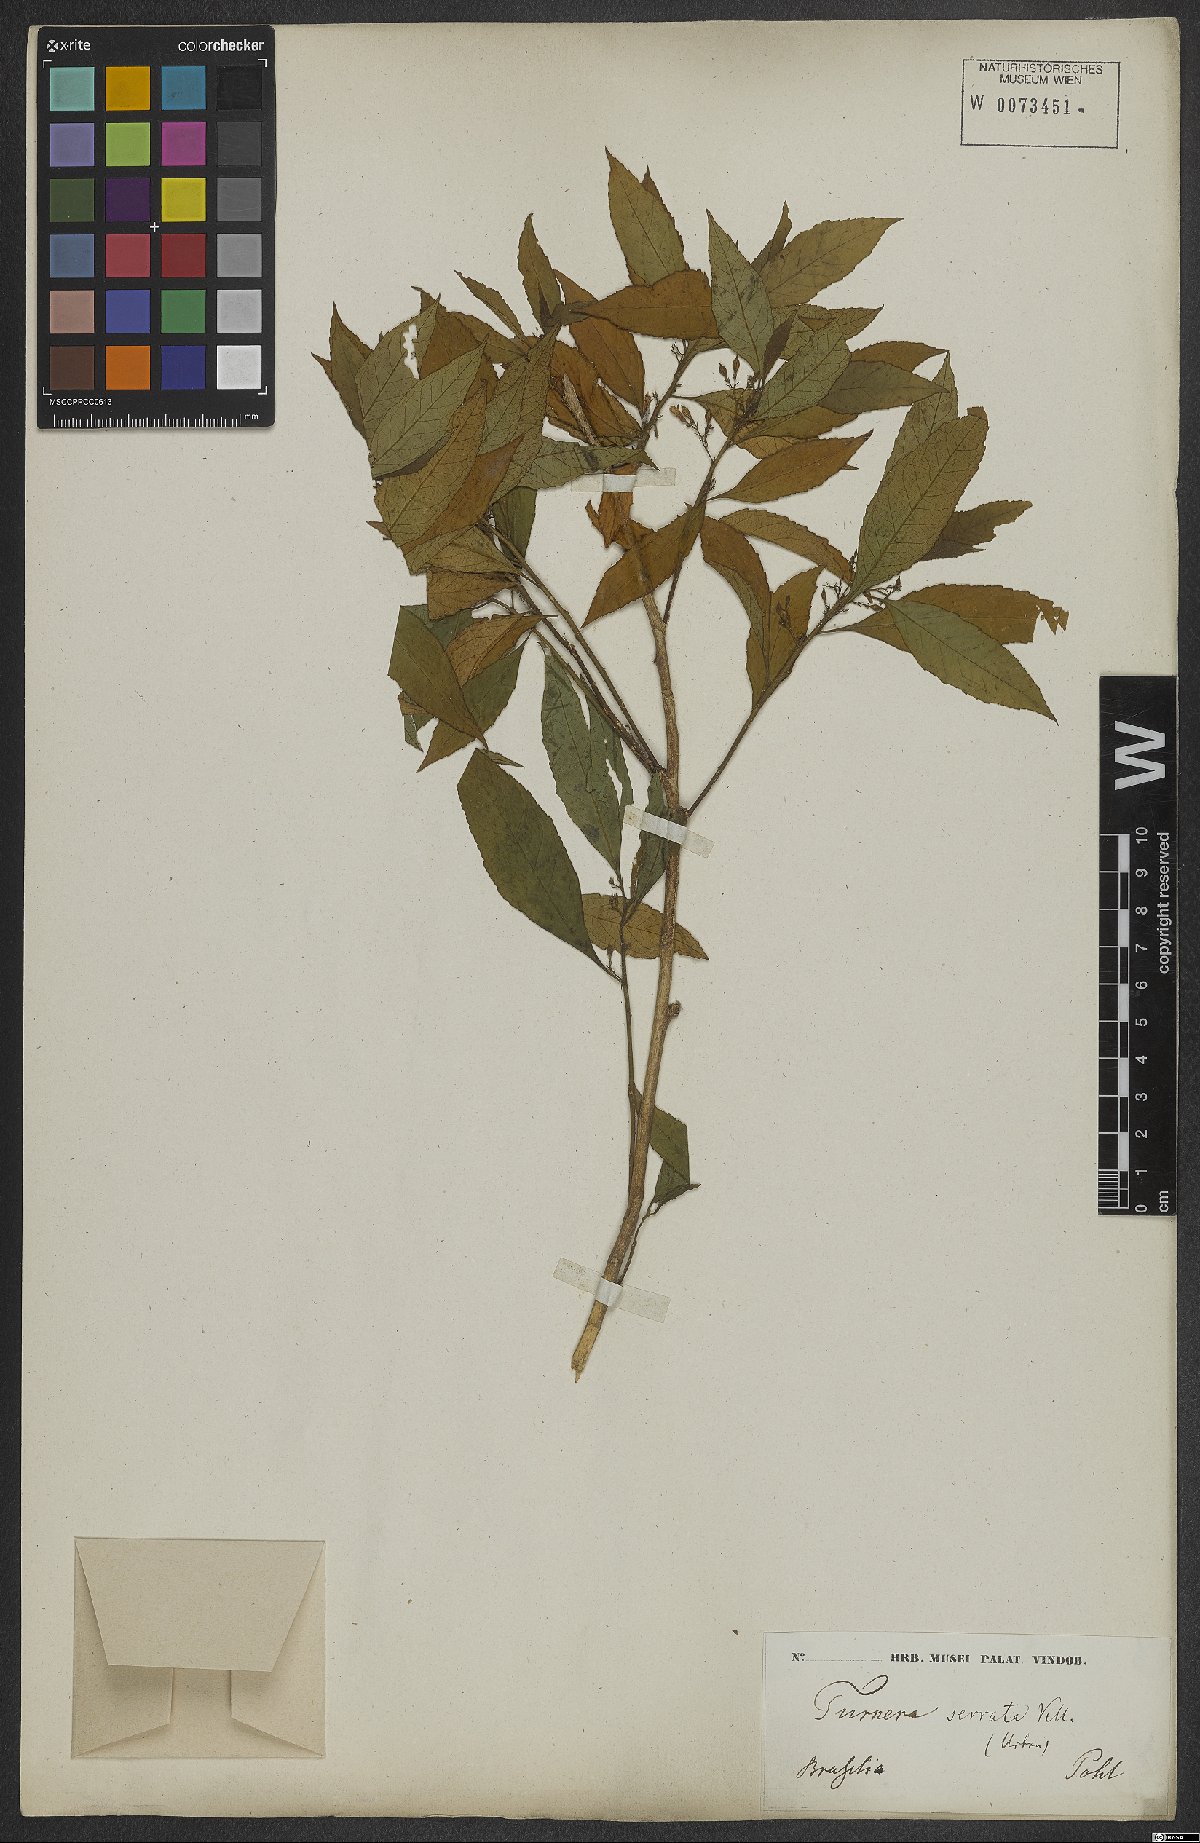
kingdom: Plantae
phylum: Tracheophyta
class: Magnoliopsida
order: Malpighiales
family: Turneraceae
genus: Turnera
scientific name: Turnera serrata
